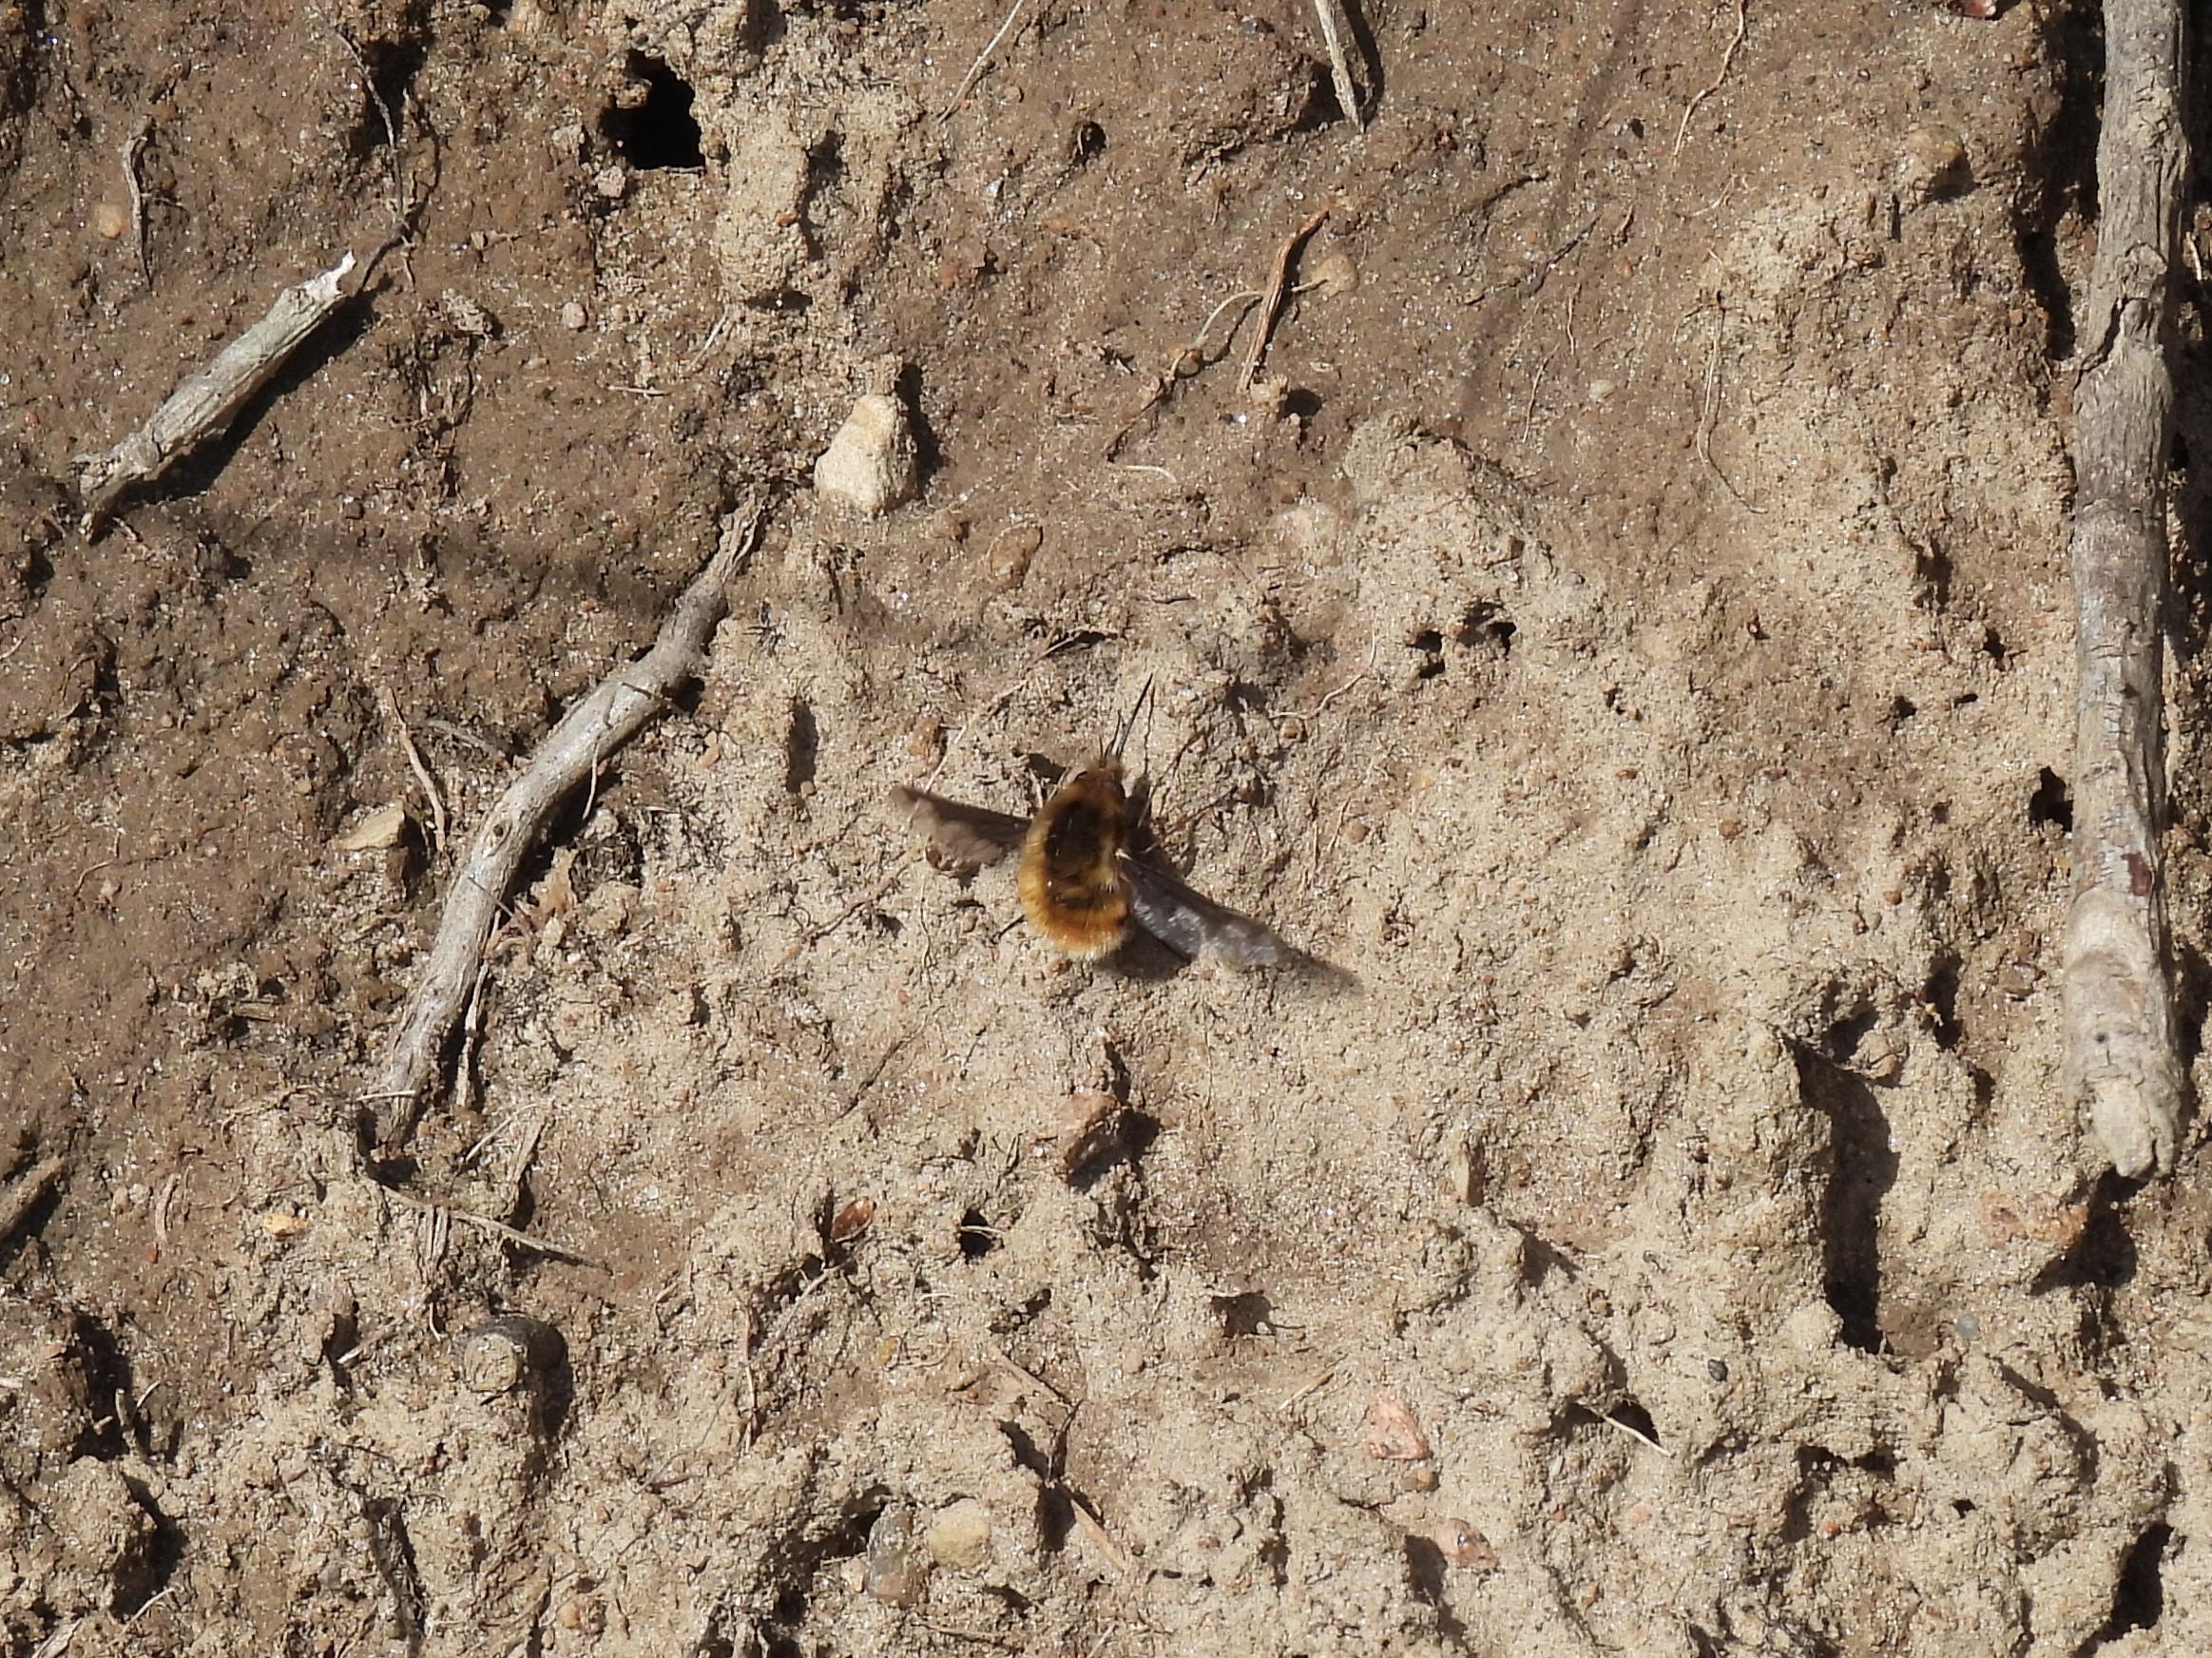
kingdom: Animalia
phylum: Arthropoda
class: Insecta
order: Diptera
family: Bombyliidae
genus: Bombylius
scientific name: Bombylius major
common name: Stor humleflue
